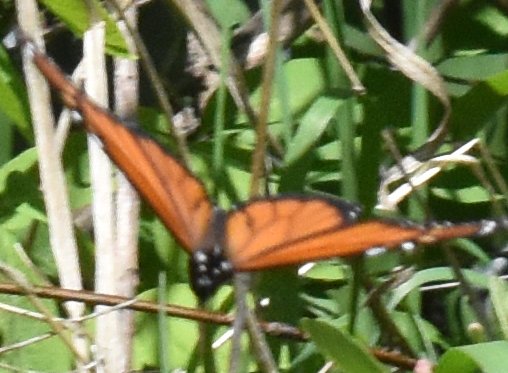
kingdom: Animalia
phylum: Arthropoda
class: Insecta
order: Lepidoptera
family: Nymphalidae
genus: Danaus
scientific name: Danaus plexippus
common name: Monarch
